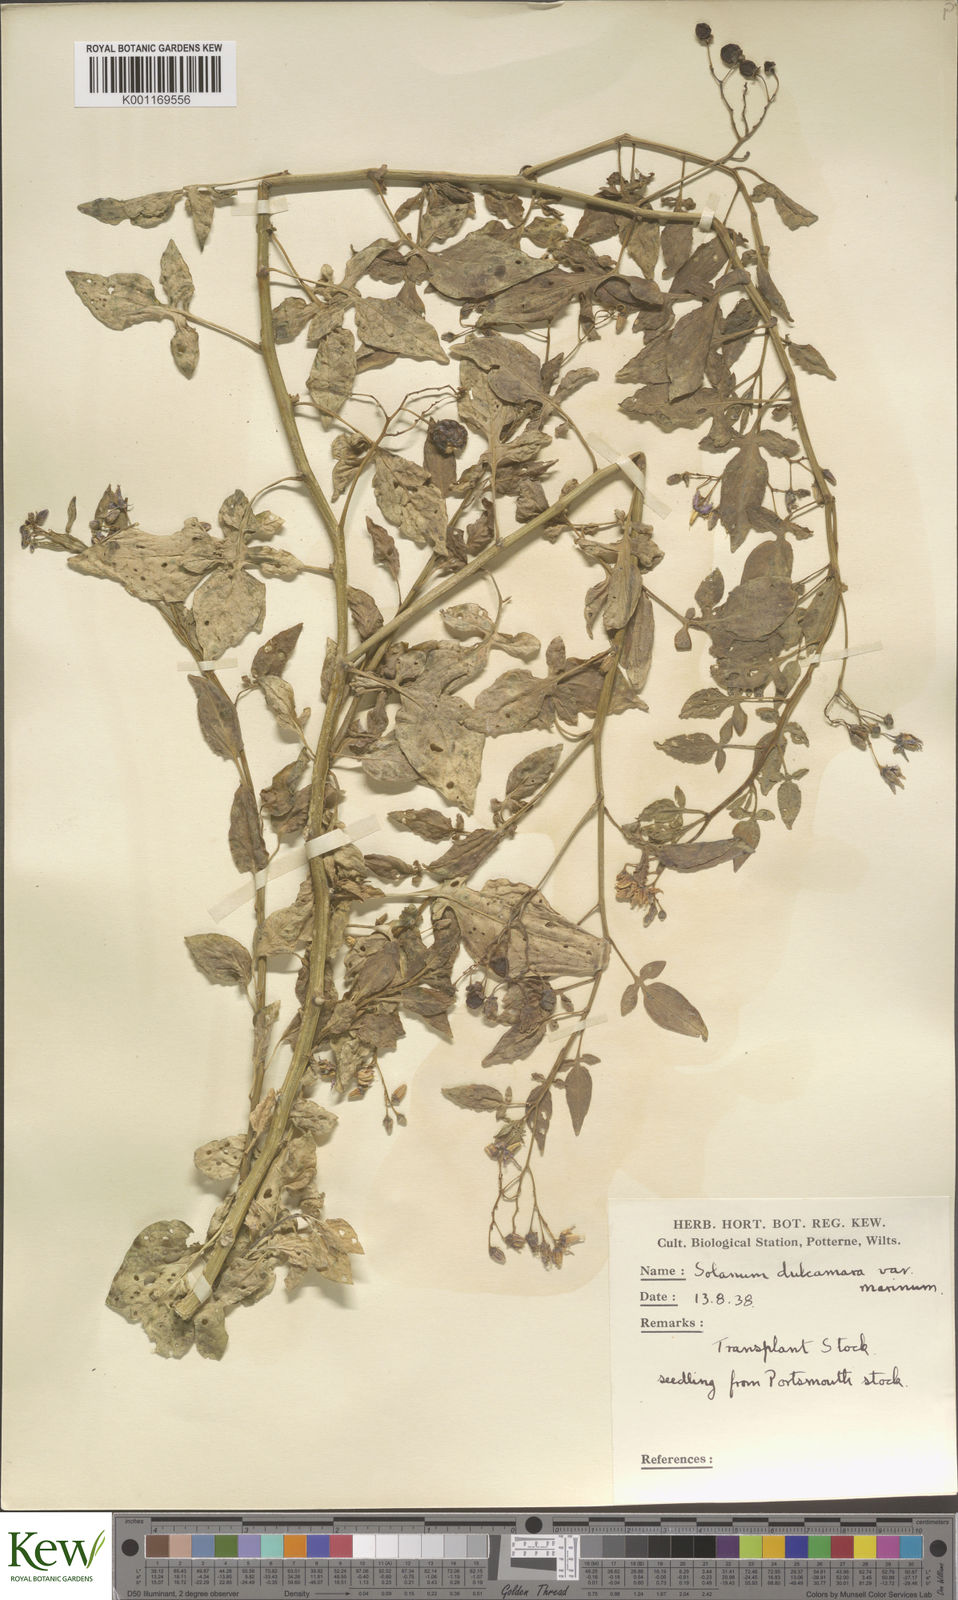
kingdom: Plantae
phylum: Tracheophyta
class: Magnoliopsida
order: Solanales
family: Solanaceae
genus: Solanum
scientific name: Solanum dulcamara
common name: Climbing nightshade
